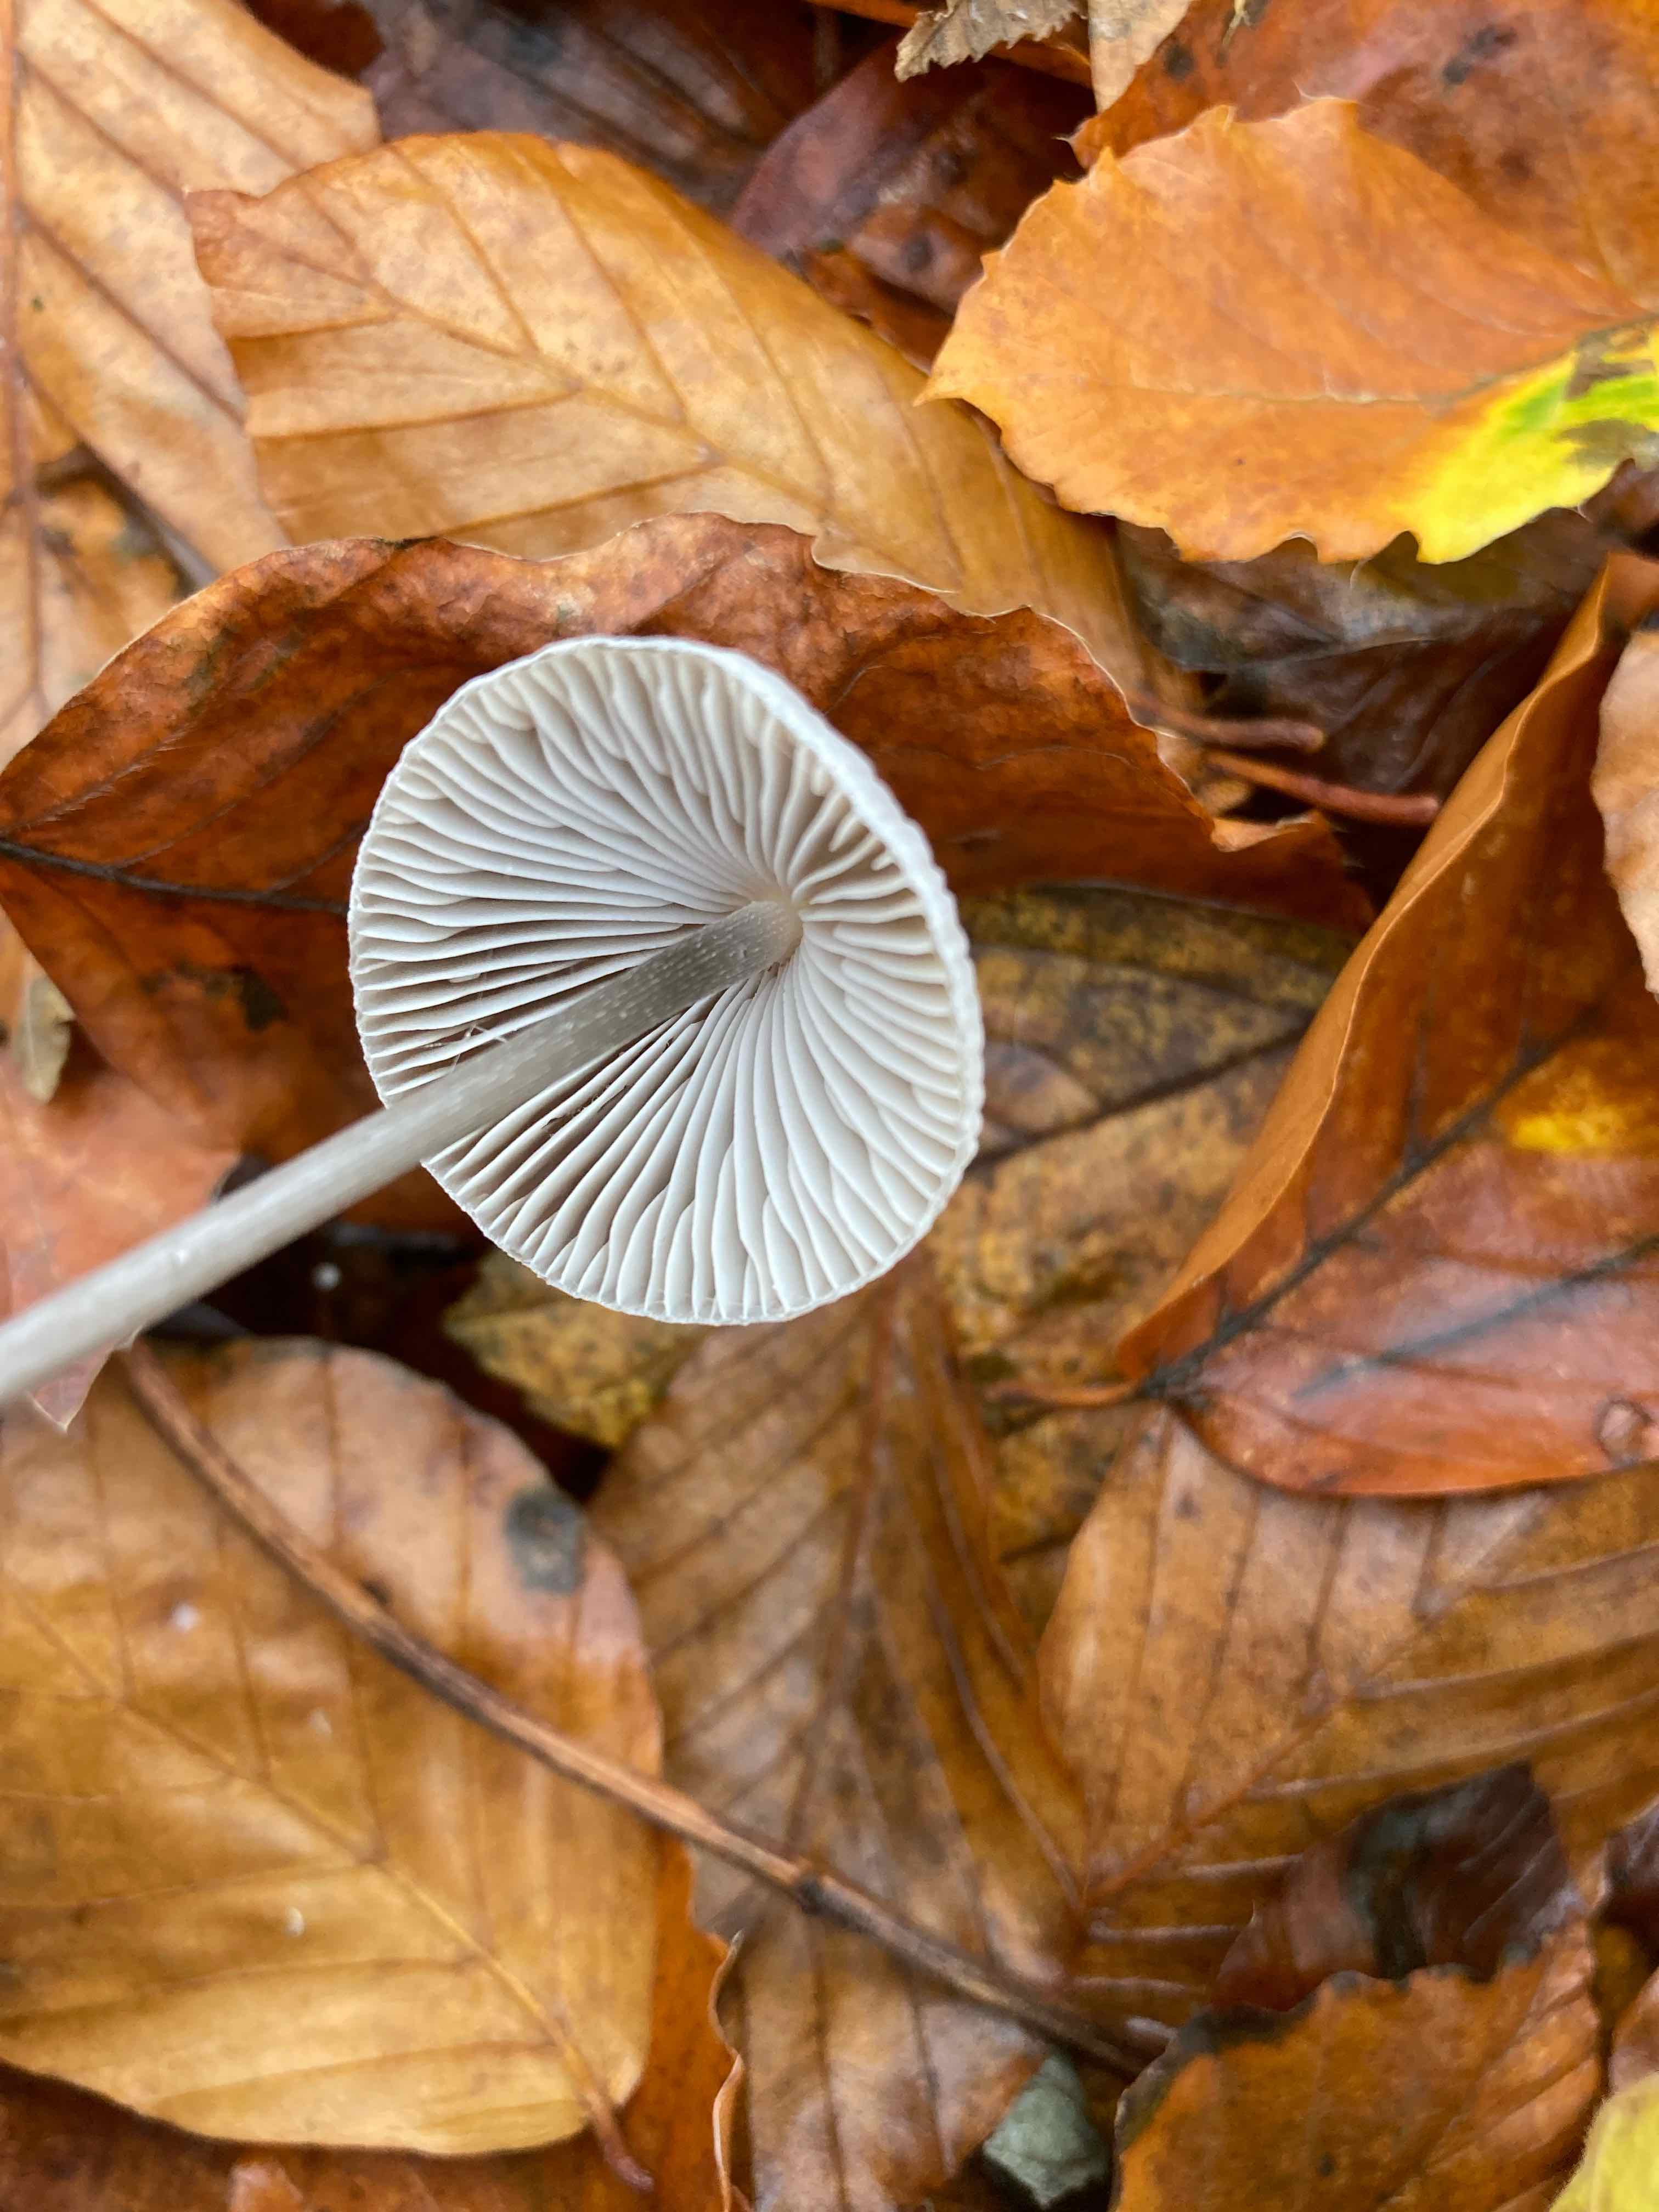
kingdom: Fungi
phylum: Basidiomycota
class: Agaricomycetes
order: Agaricales
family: Mycenaceae
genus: Mycena
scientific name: Mycena polygramma
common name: mangestribet huesvamp
